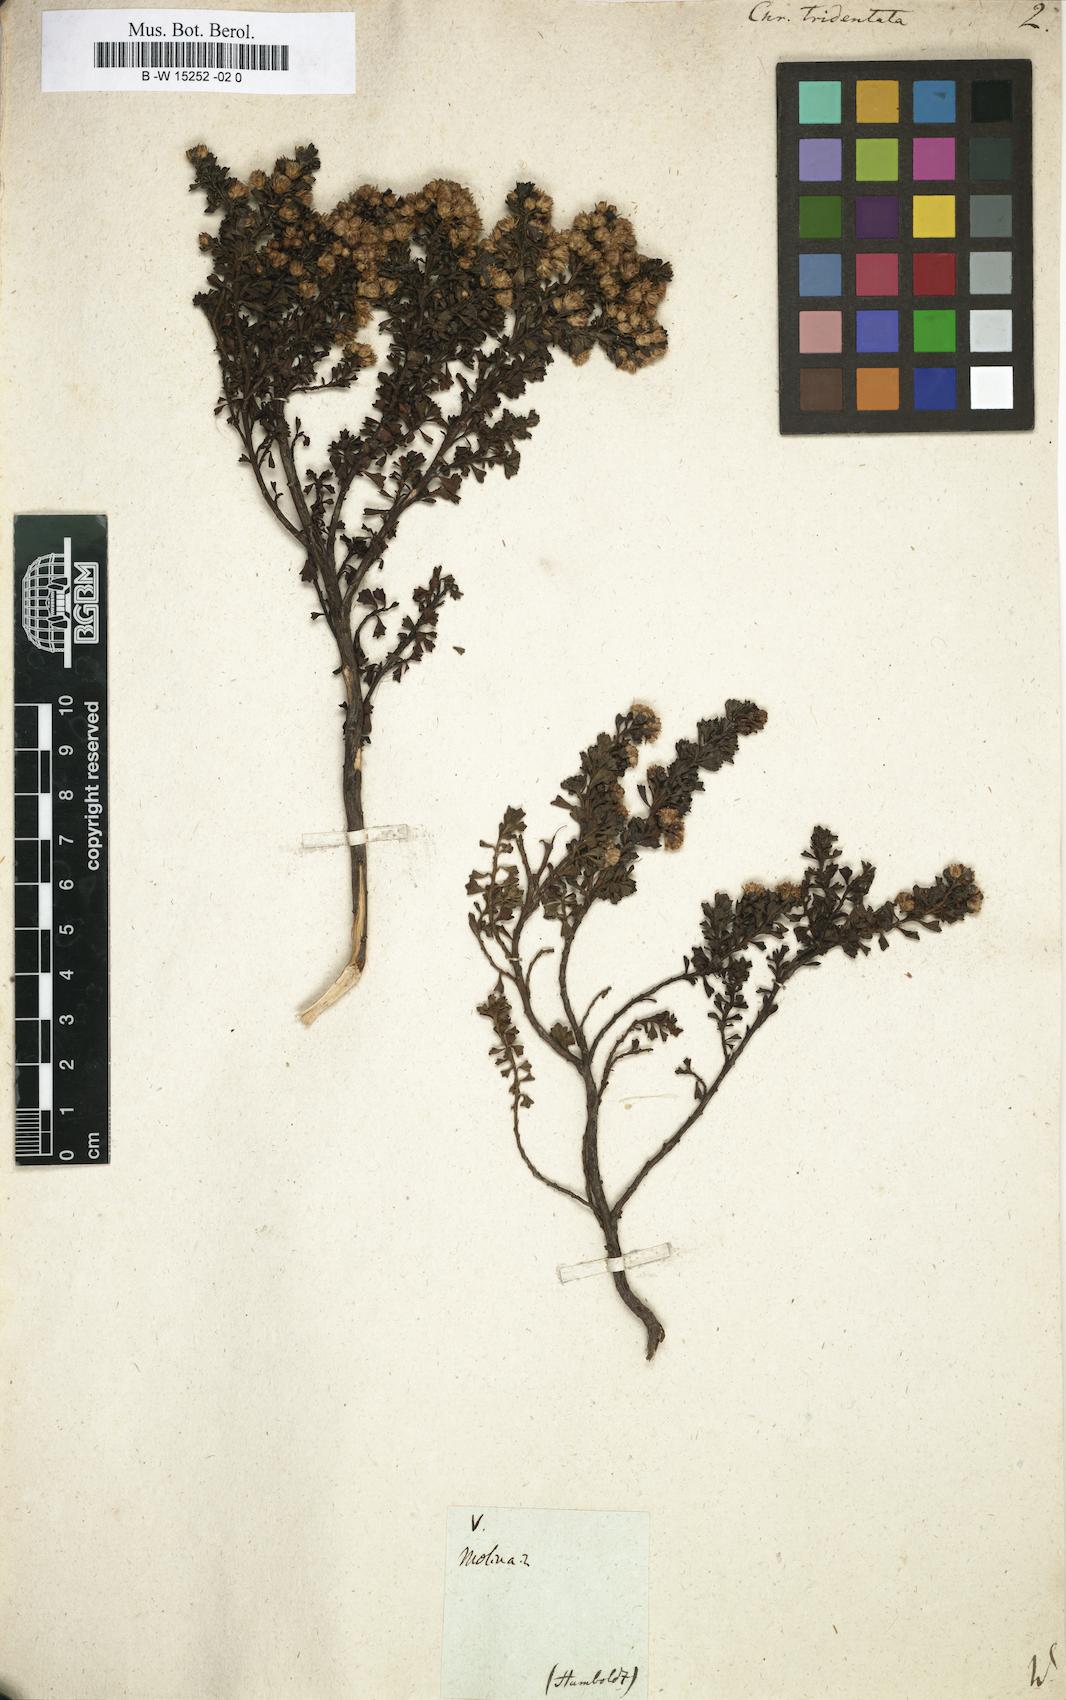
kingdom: Plantae
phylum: Tracheophyta
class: Magnoliopsida
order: Asterales
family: Asteraceae
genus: Chrysocoma
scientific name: Chrysocoma tridentata
